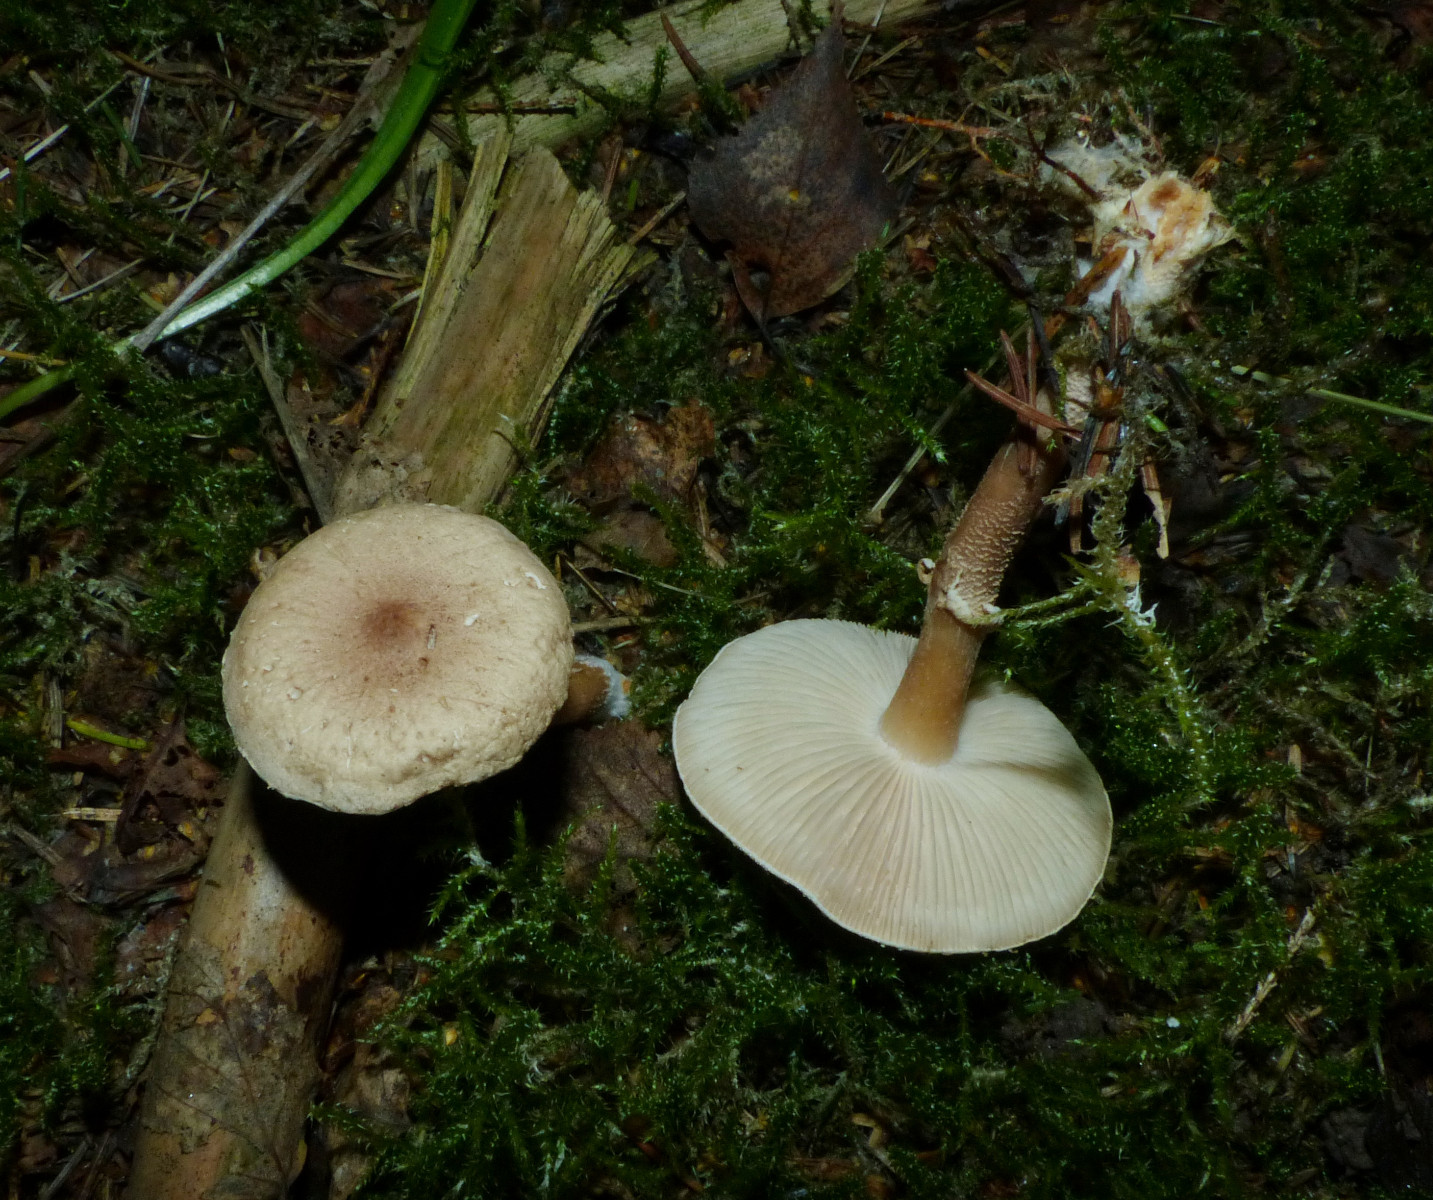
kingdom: Fungi
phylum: Basidiomycota
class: Agaricomycetes
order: Agaricales
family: Tricholomataceae
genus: Cystoderma
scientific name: Cystoderma carcharias
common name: rødgrå grynhat
